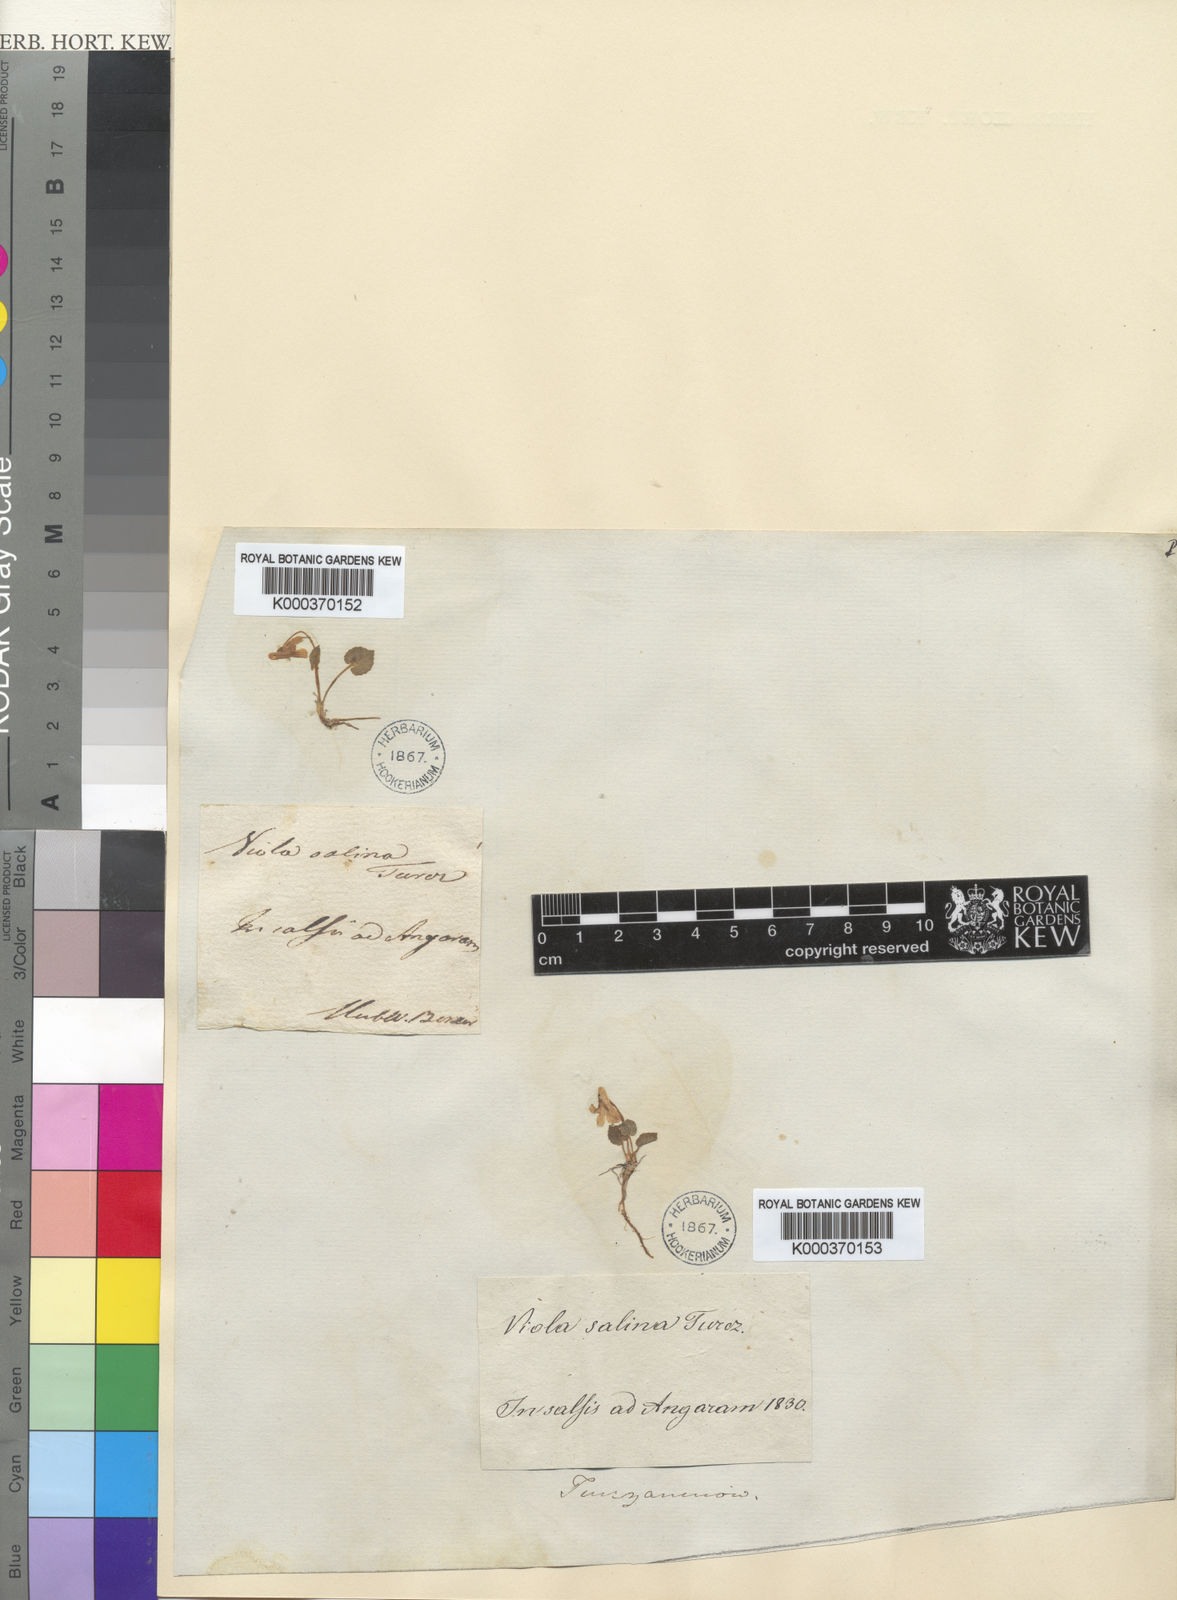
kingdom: Plantae
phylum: Tracheophyta
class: Magnoliopsida
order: Malpighiales
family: Violaceae
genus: Viola
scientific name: Viola selkirkii
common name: Selkirk's violet
